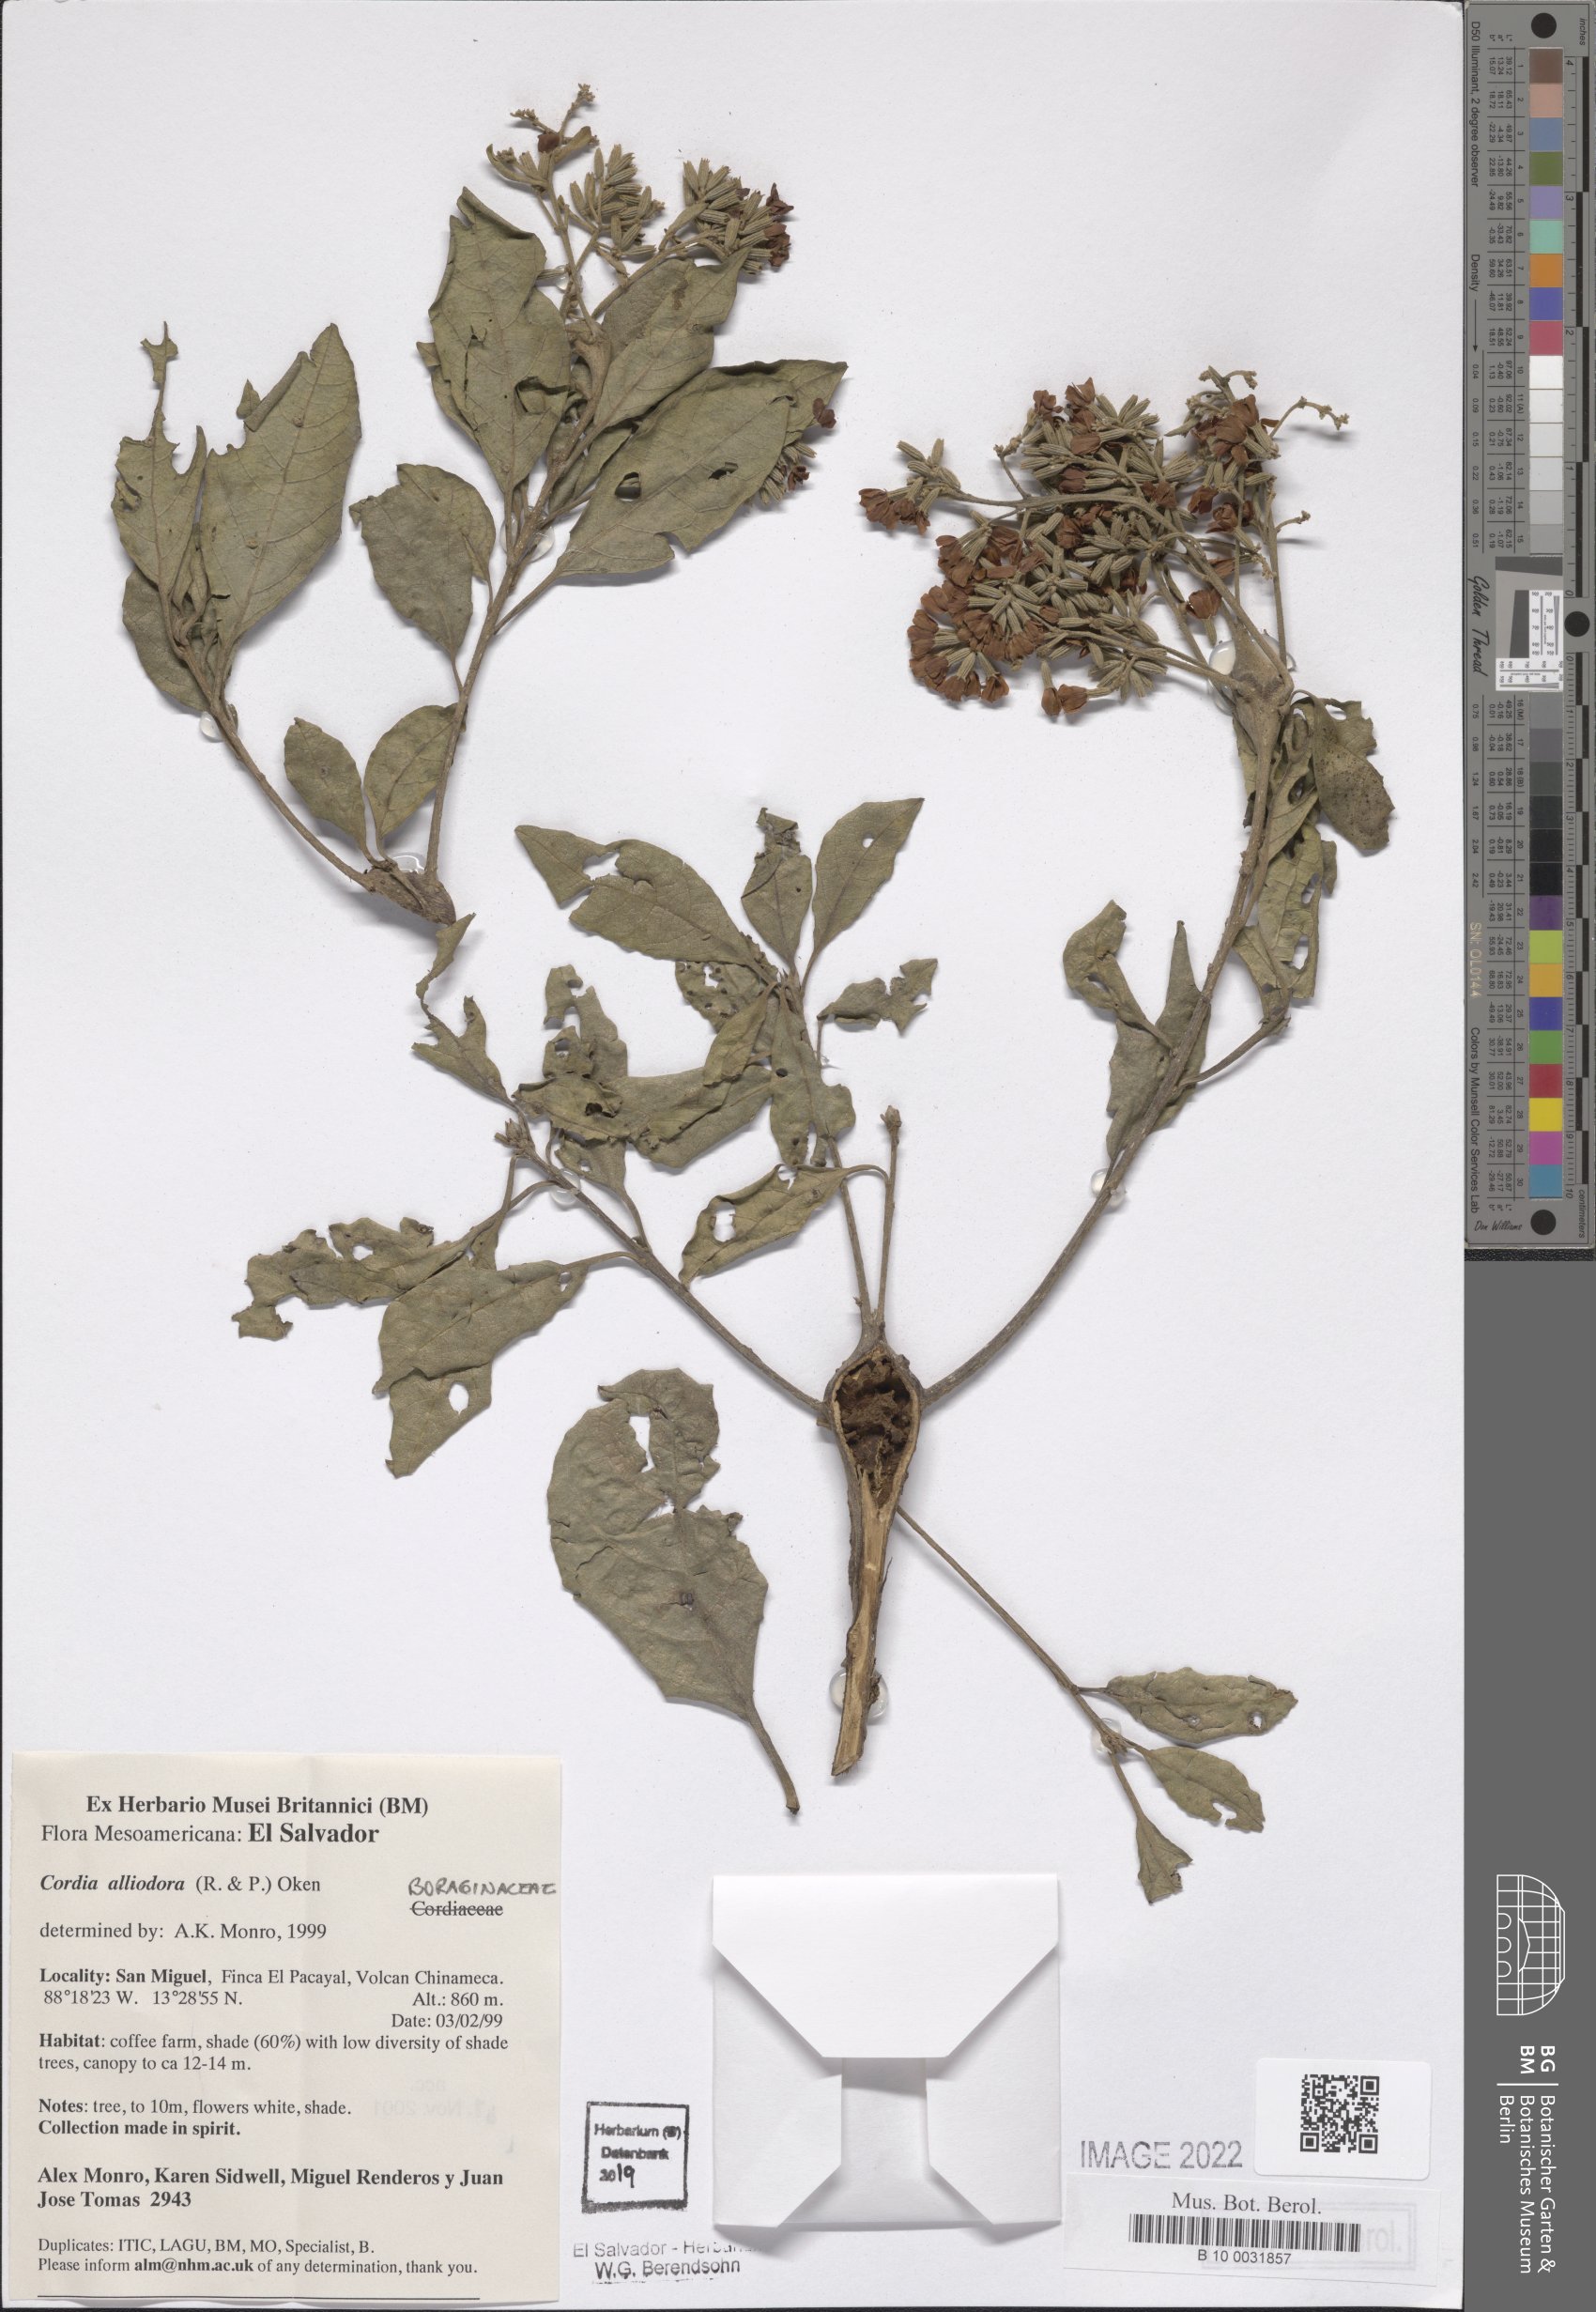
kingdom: Plantae
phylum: Tracheophyta
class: Magnoliopsida
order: Boraginales
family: Cordiaceae
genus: Cordia
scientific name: Cordia alliodora
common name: Spanish elm
